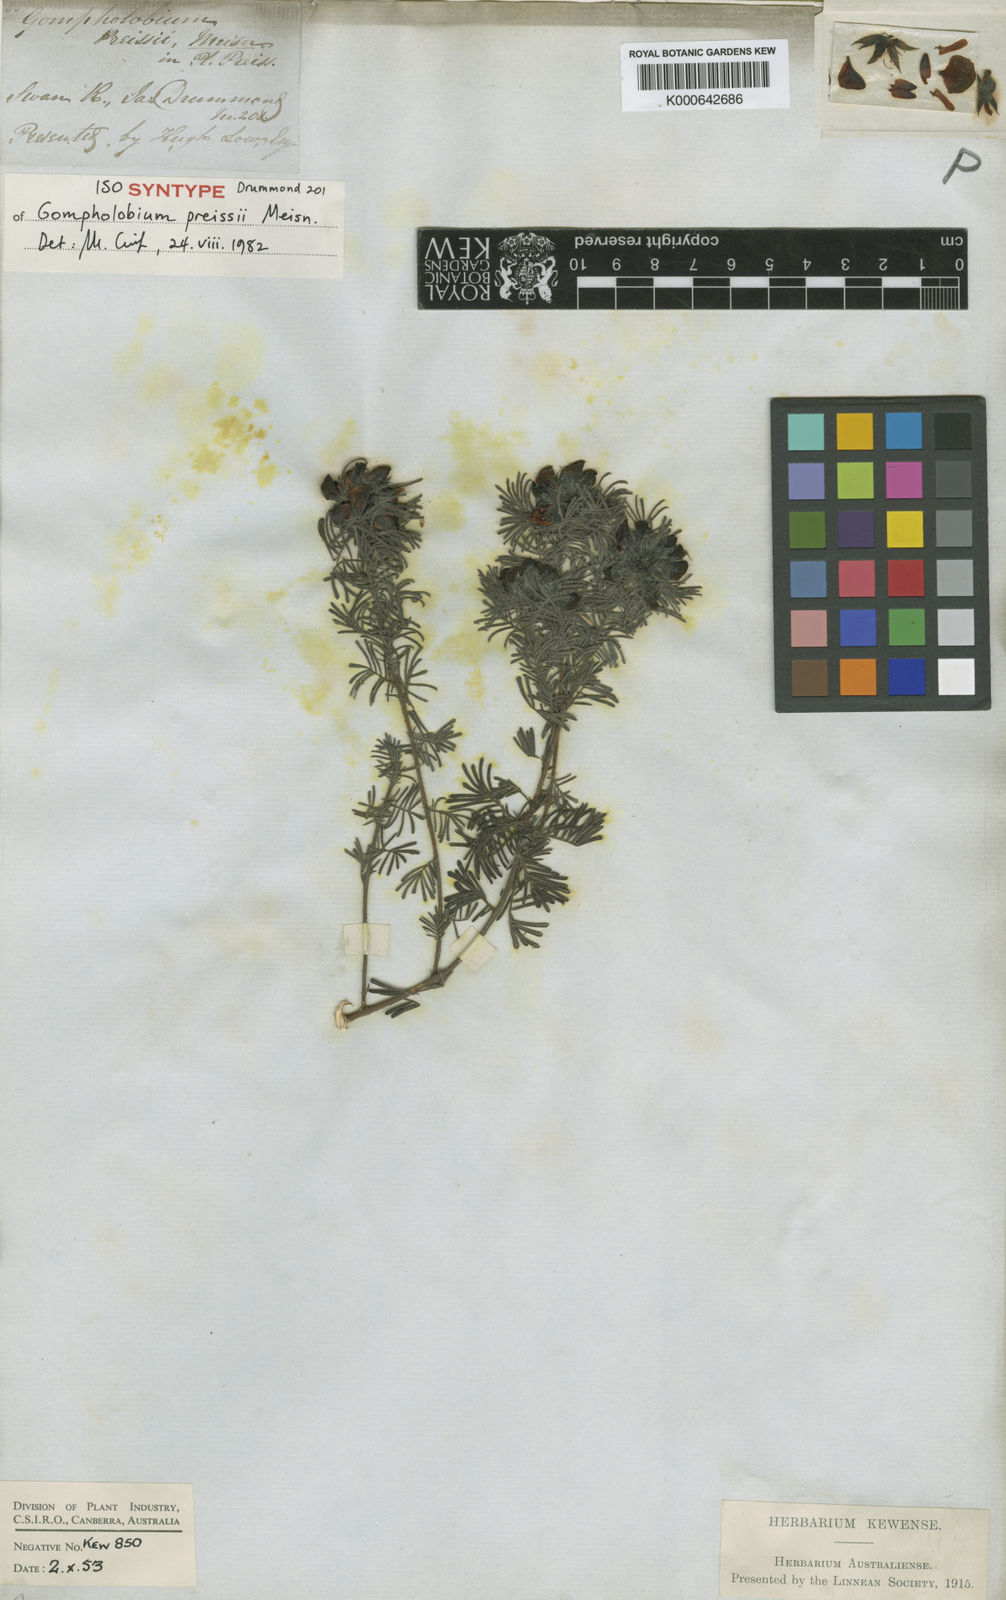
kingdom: Plantae
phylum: Tracheophyta
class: Magnoliopsida
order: Fabales
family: Fabaceae
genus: Gompholobium
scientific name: Gompholobium preissii
